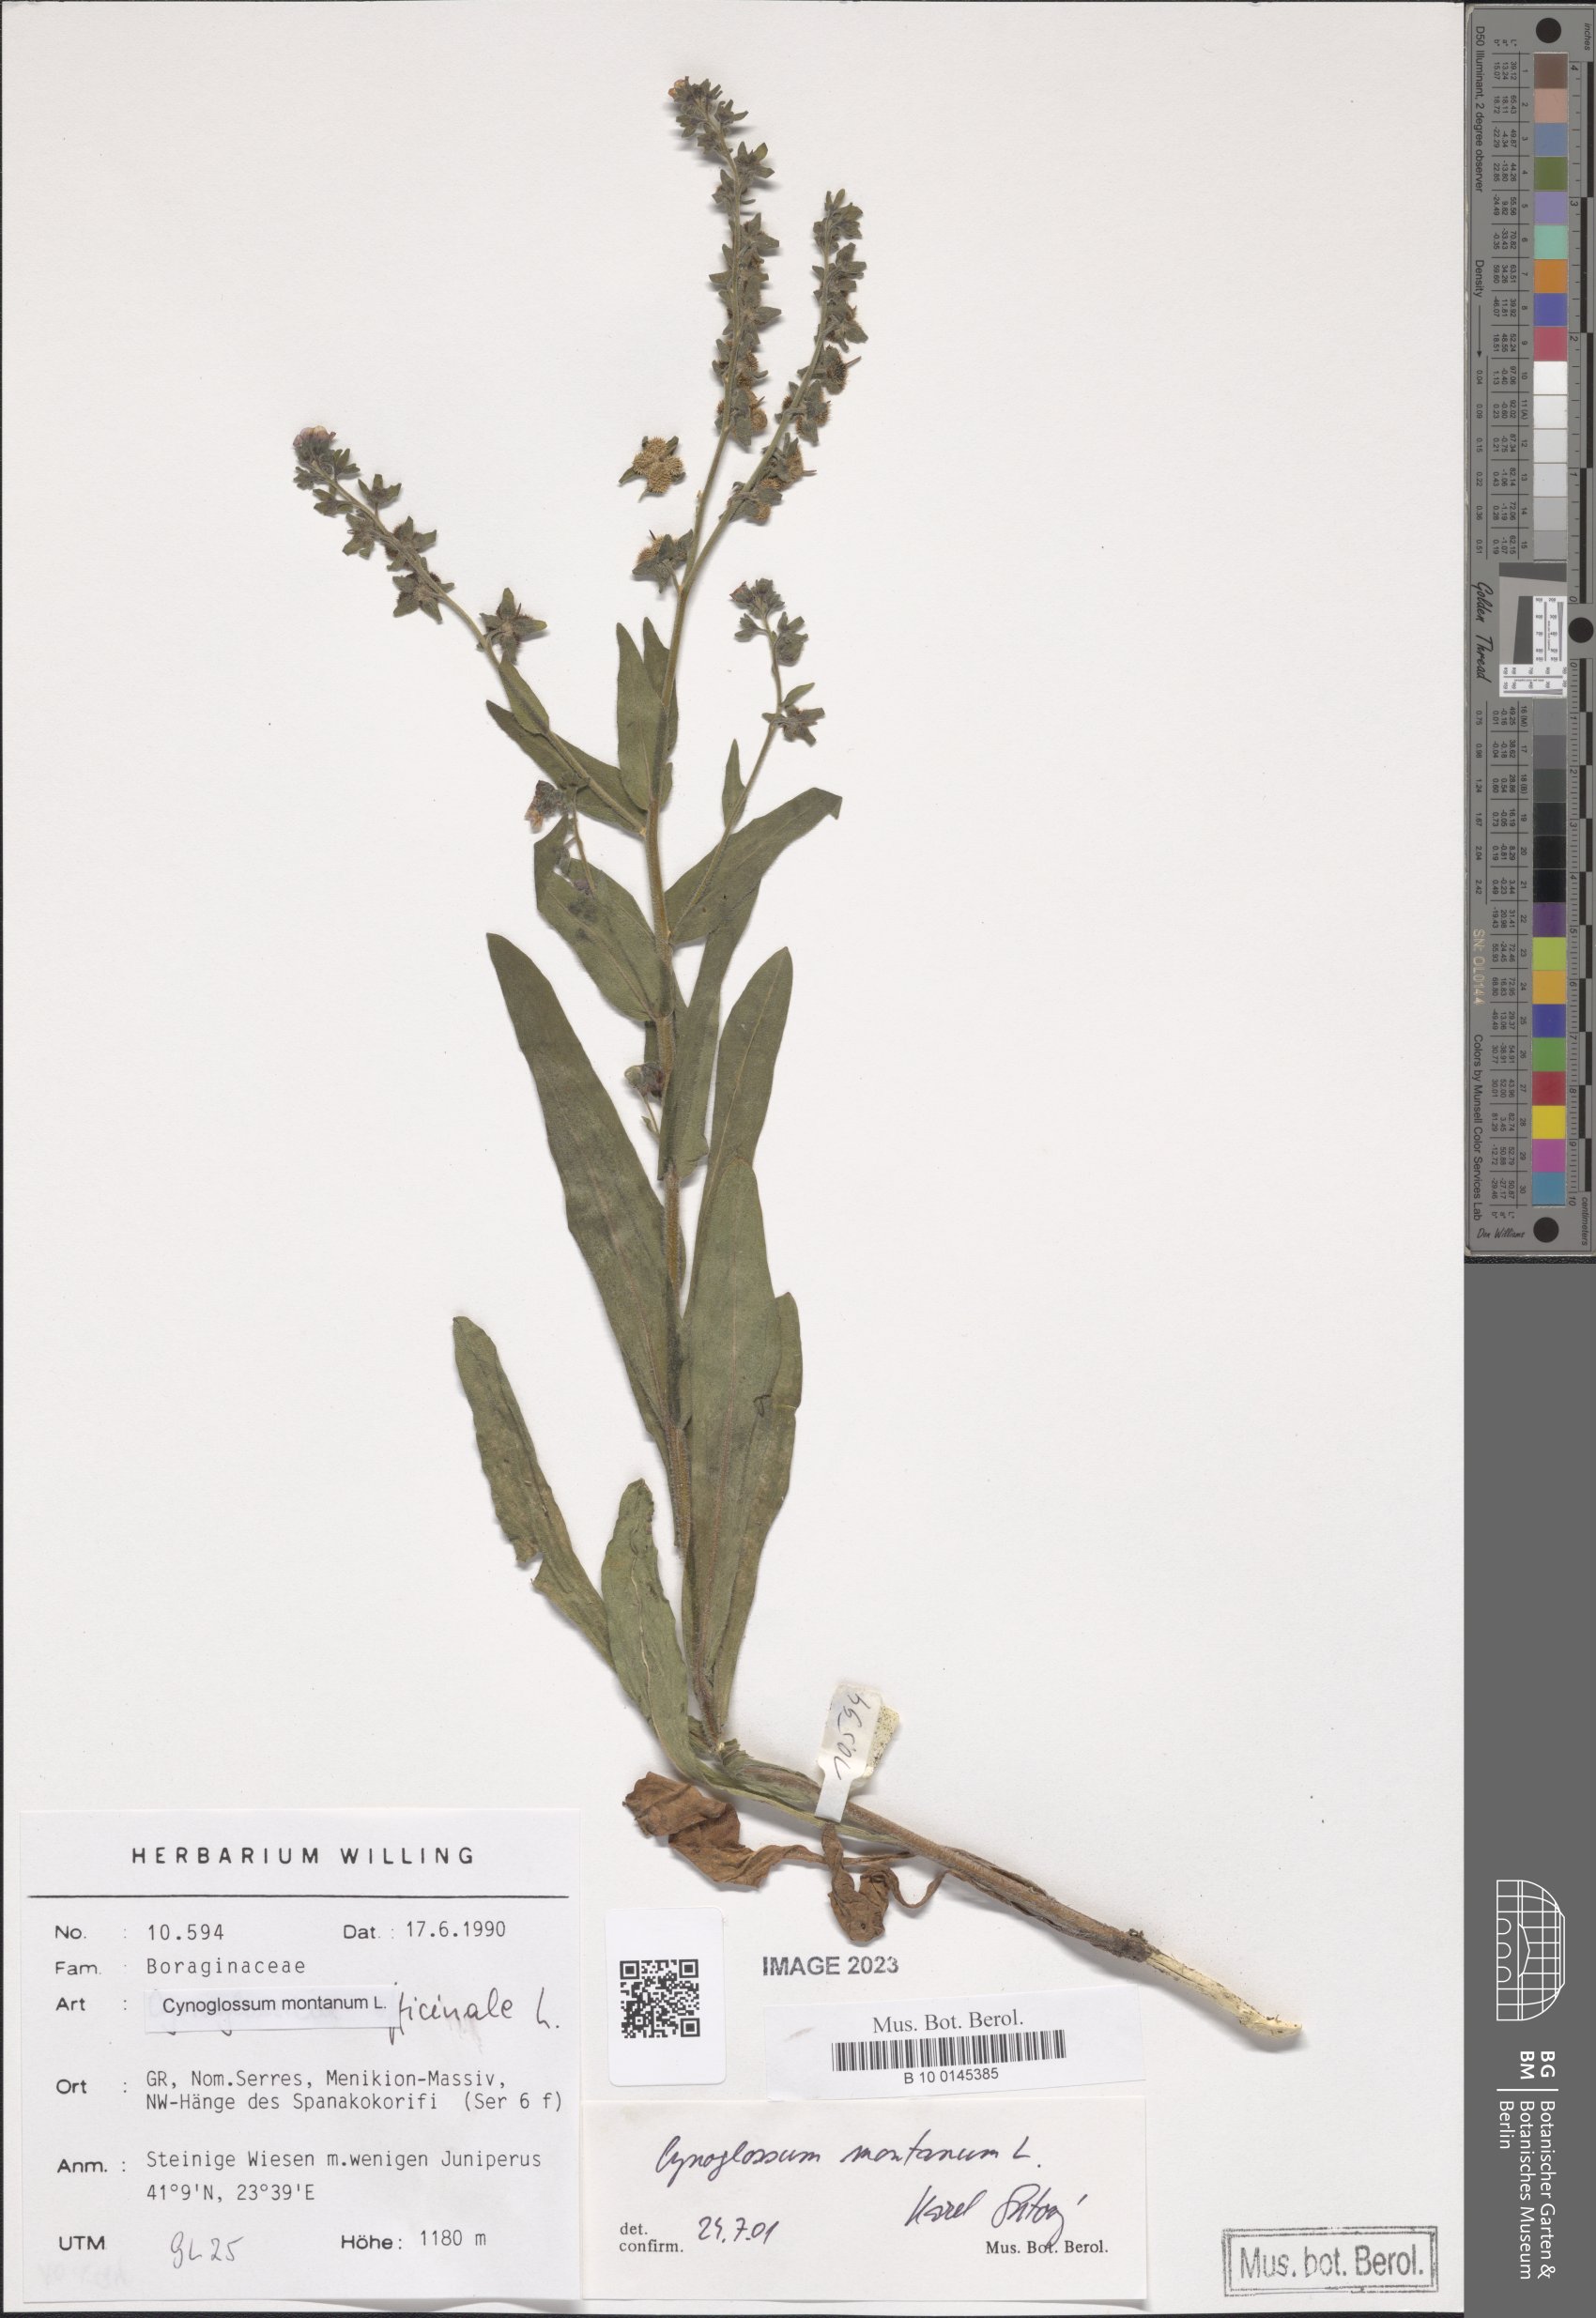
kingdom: Plantae
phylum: Tracheophyta
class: Magnoliopsida
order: Boraginales
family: Boraginaceae
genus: Cynoglossum
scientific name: Cynoglossum montanum
